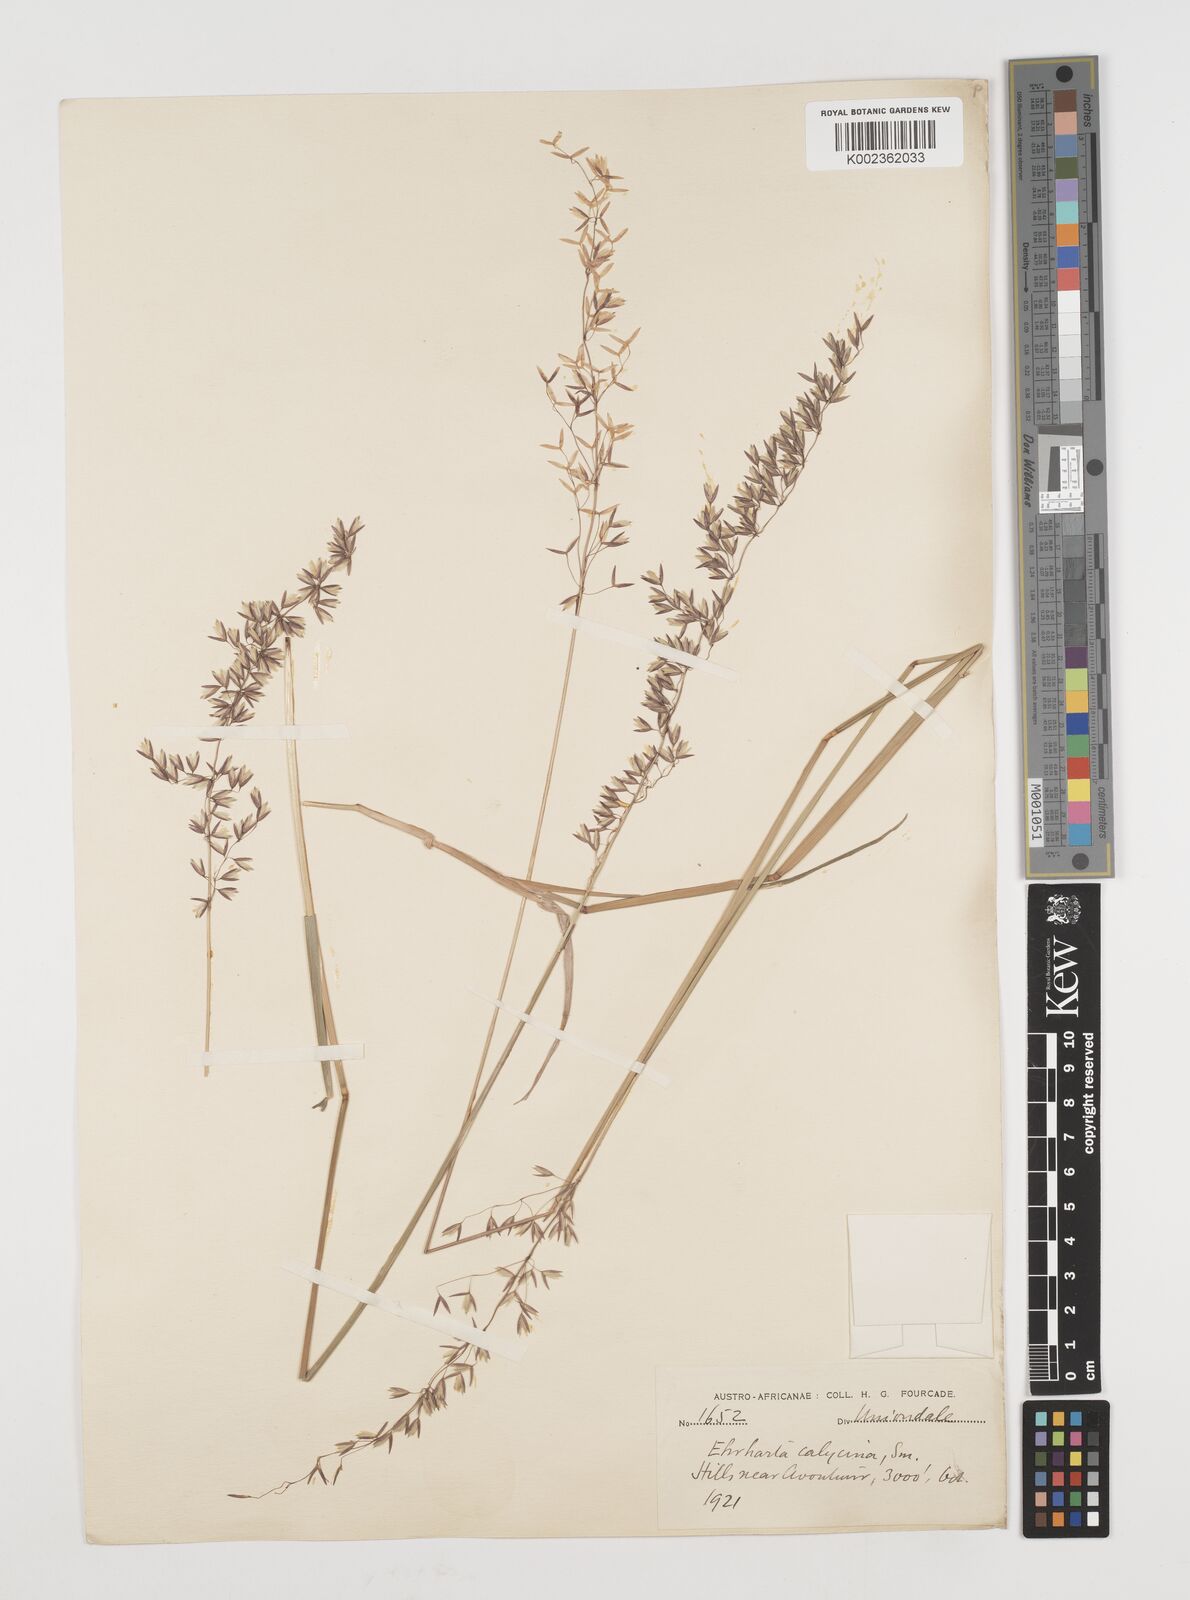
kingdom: Plantae
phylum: Tracheophyta
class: Liliopsida
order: Poales
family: Poaceae
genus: Ehrharta
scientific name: Ehrharta calycina
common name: Perennial veldtgrass
